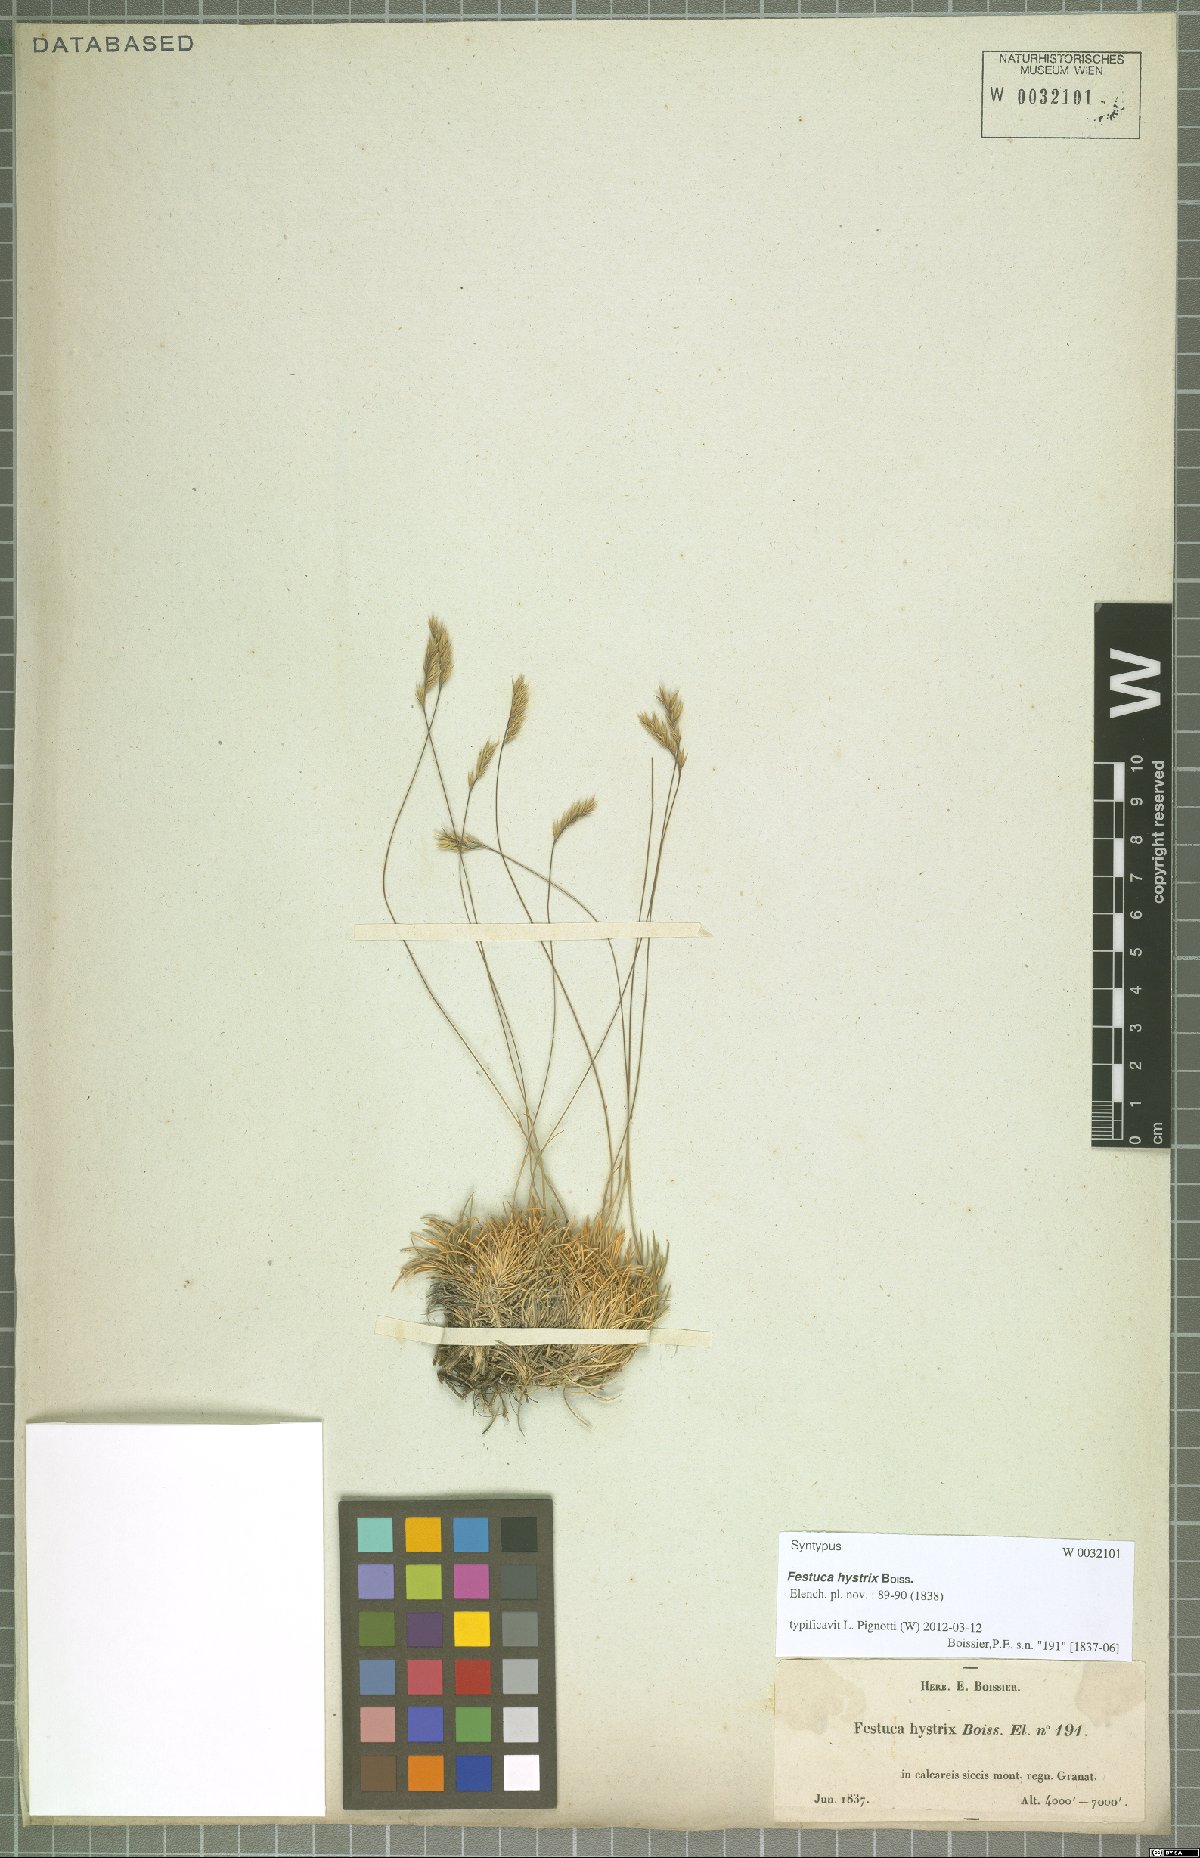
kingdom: Plantae
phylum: Tracheophyta
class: Liliopsida
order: Poales
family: Poaceae
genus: Festuca
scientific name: Festuca hystrix
